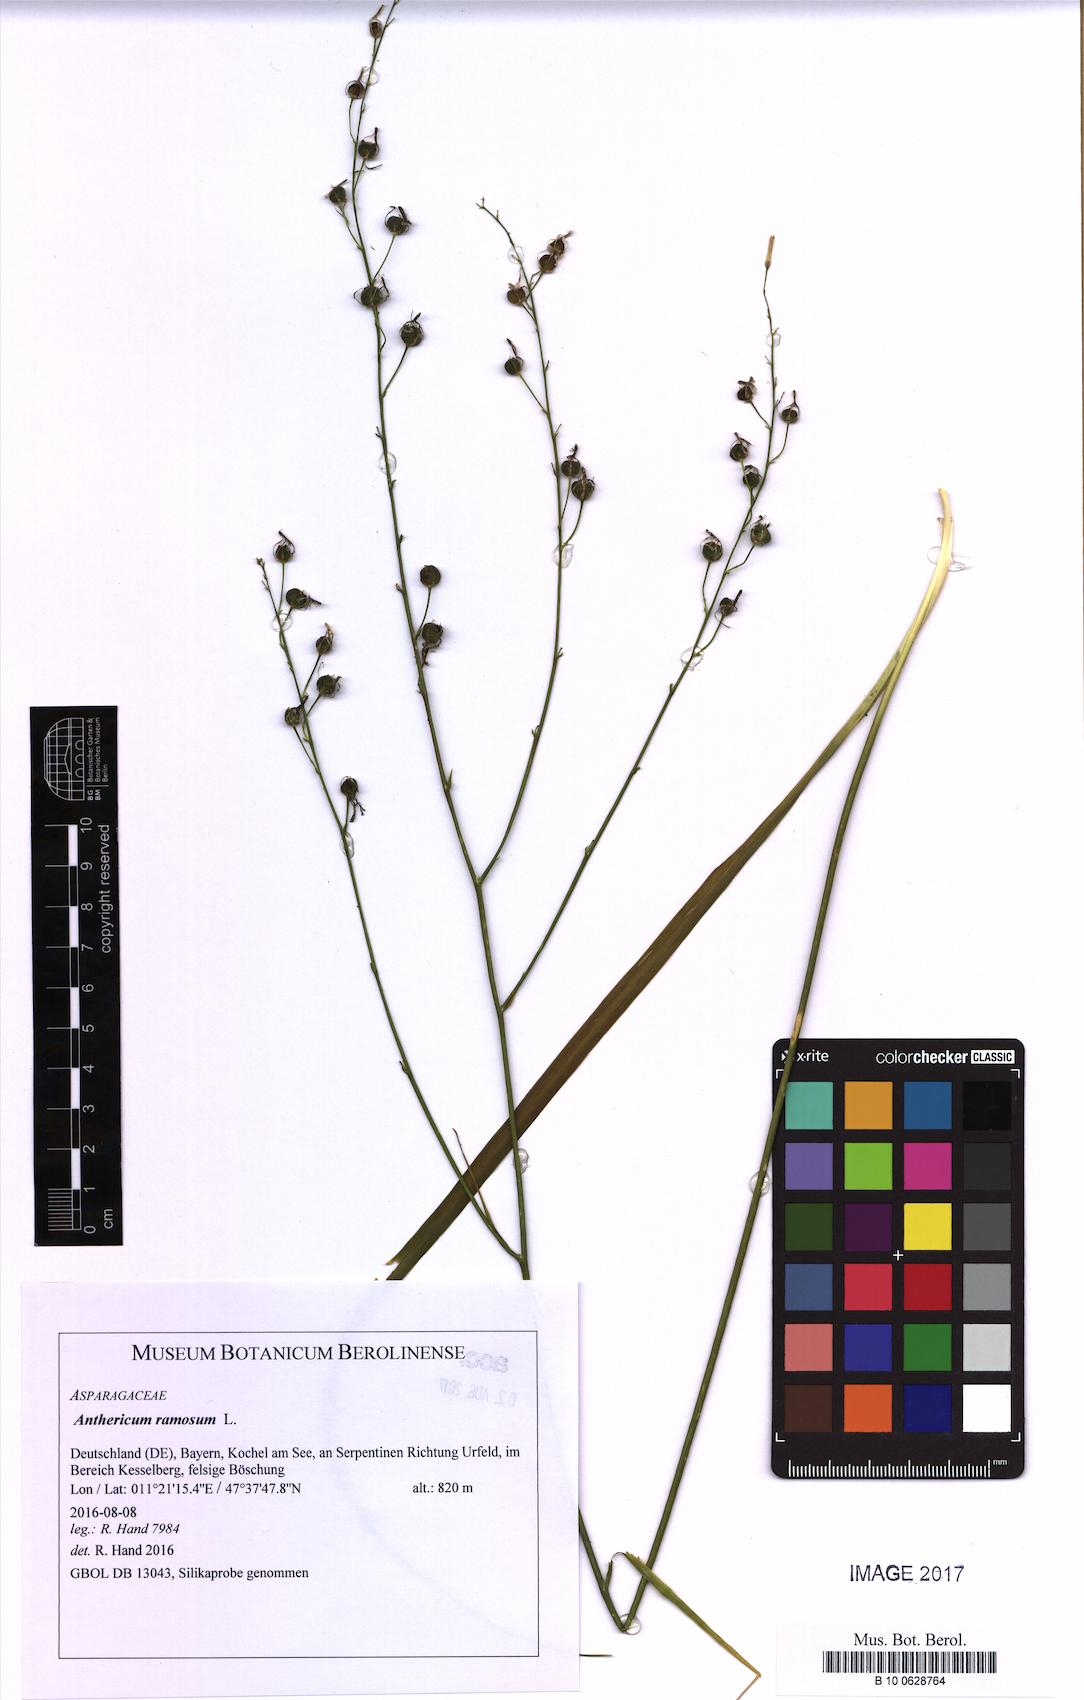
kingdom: Plantae
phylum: Tracheophyta
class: Liliopsida
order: Asparagales
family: Asparagaceae
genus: Anthericum
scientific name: Anthericum ramosum
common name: Branched st. bernard's-lily
